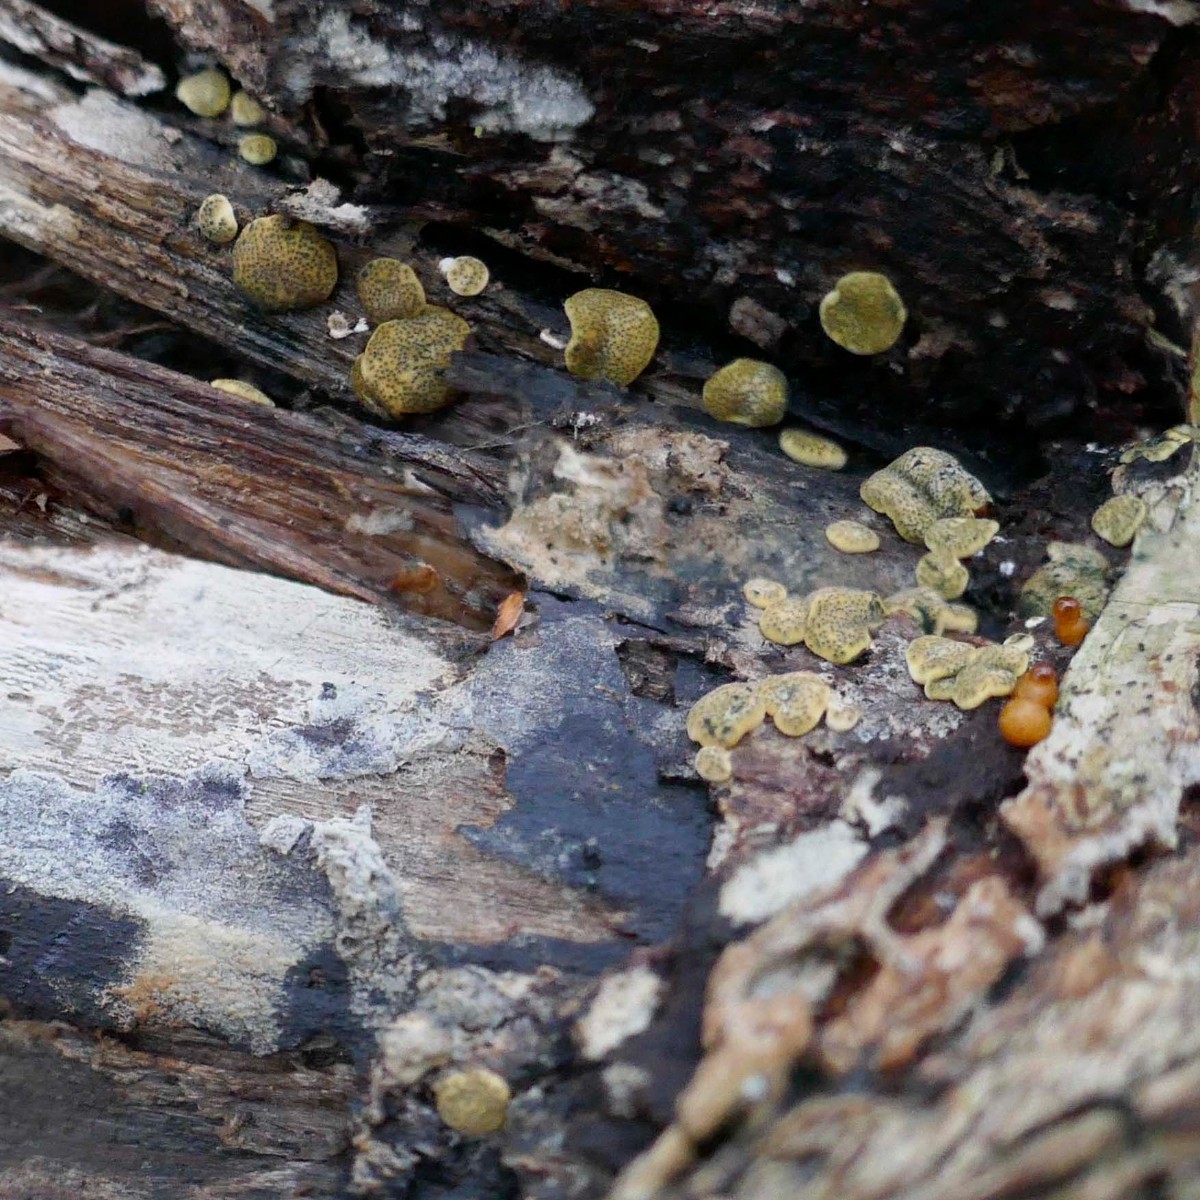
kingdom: Fungi
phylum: Ascomycota
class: Sordariomycetes
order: Hypocreales
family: Hypocreaceae
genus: Trichoderma
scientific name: Trichoderma aureoviride
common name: æggegul kødkerne
